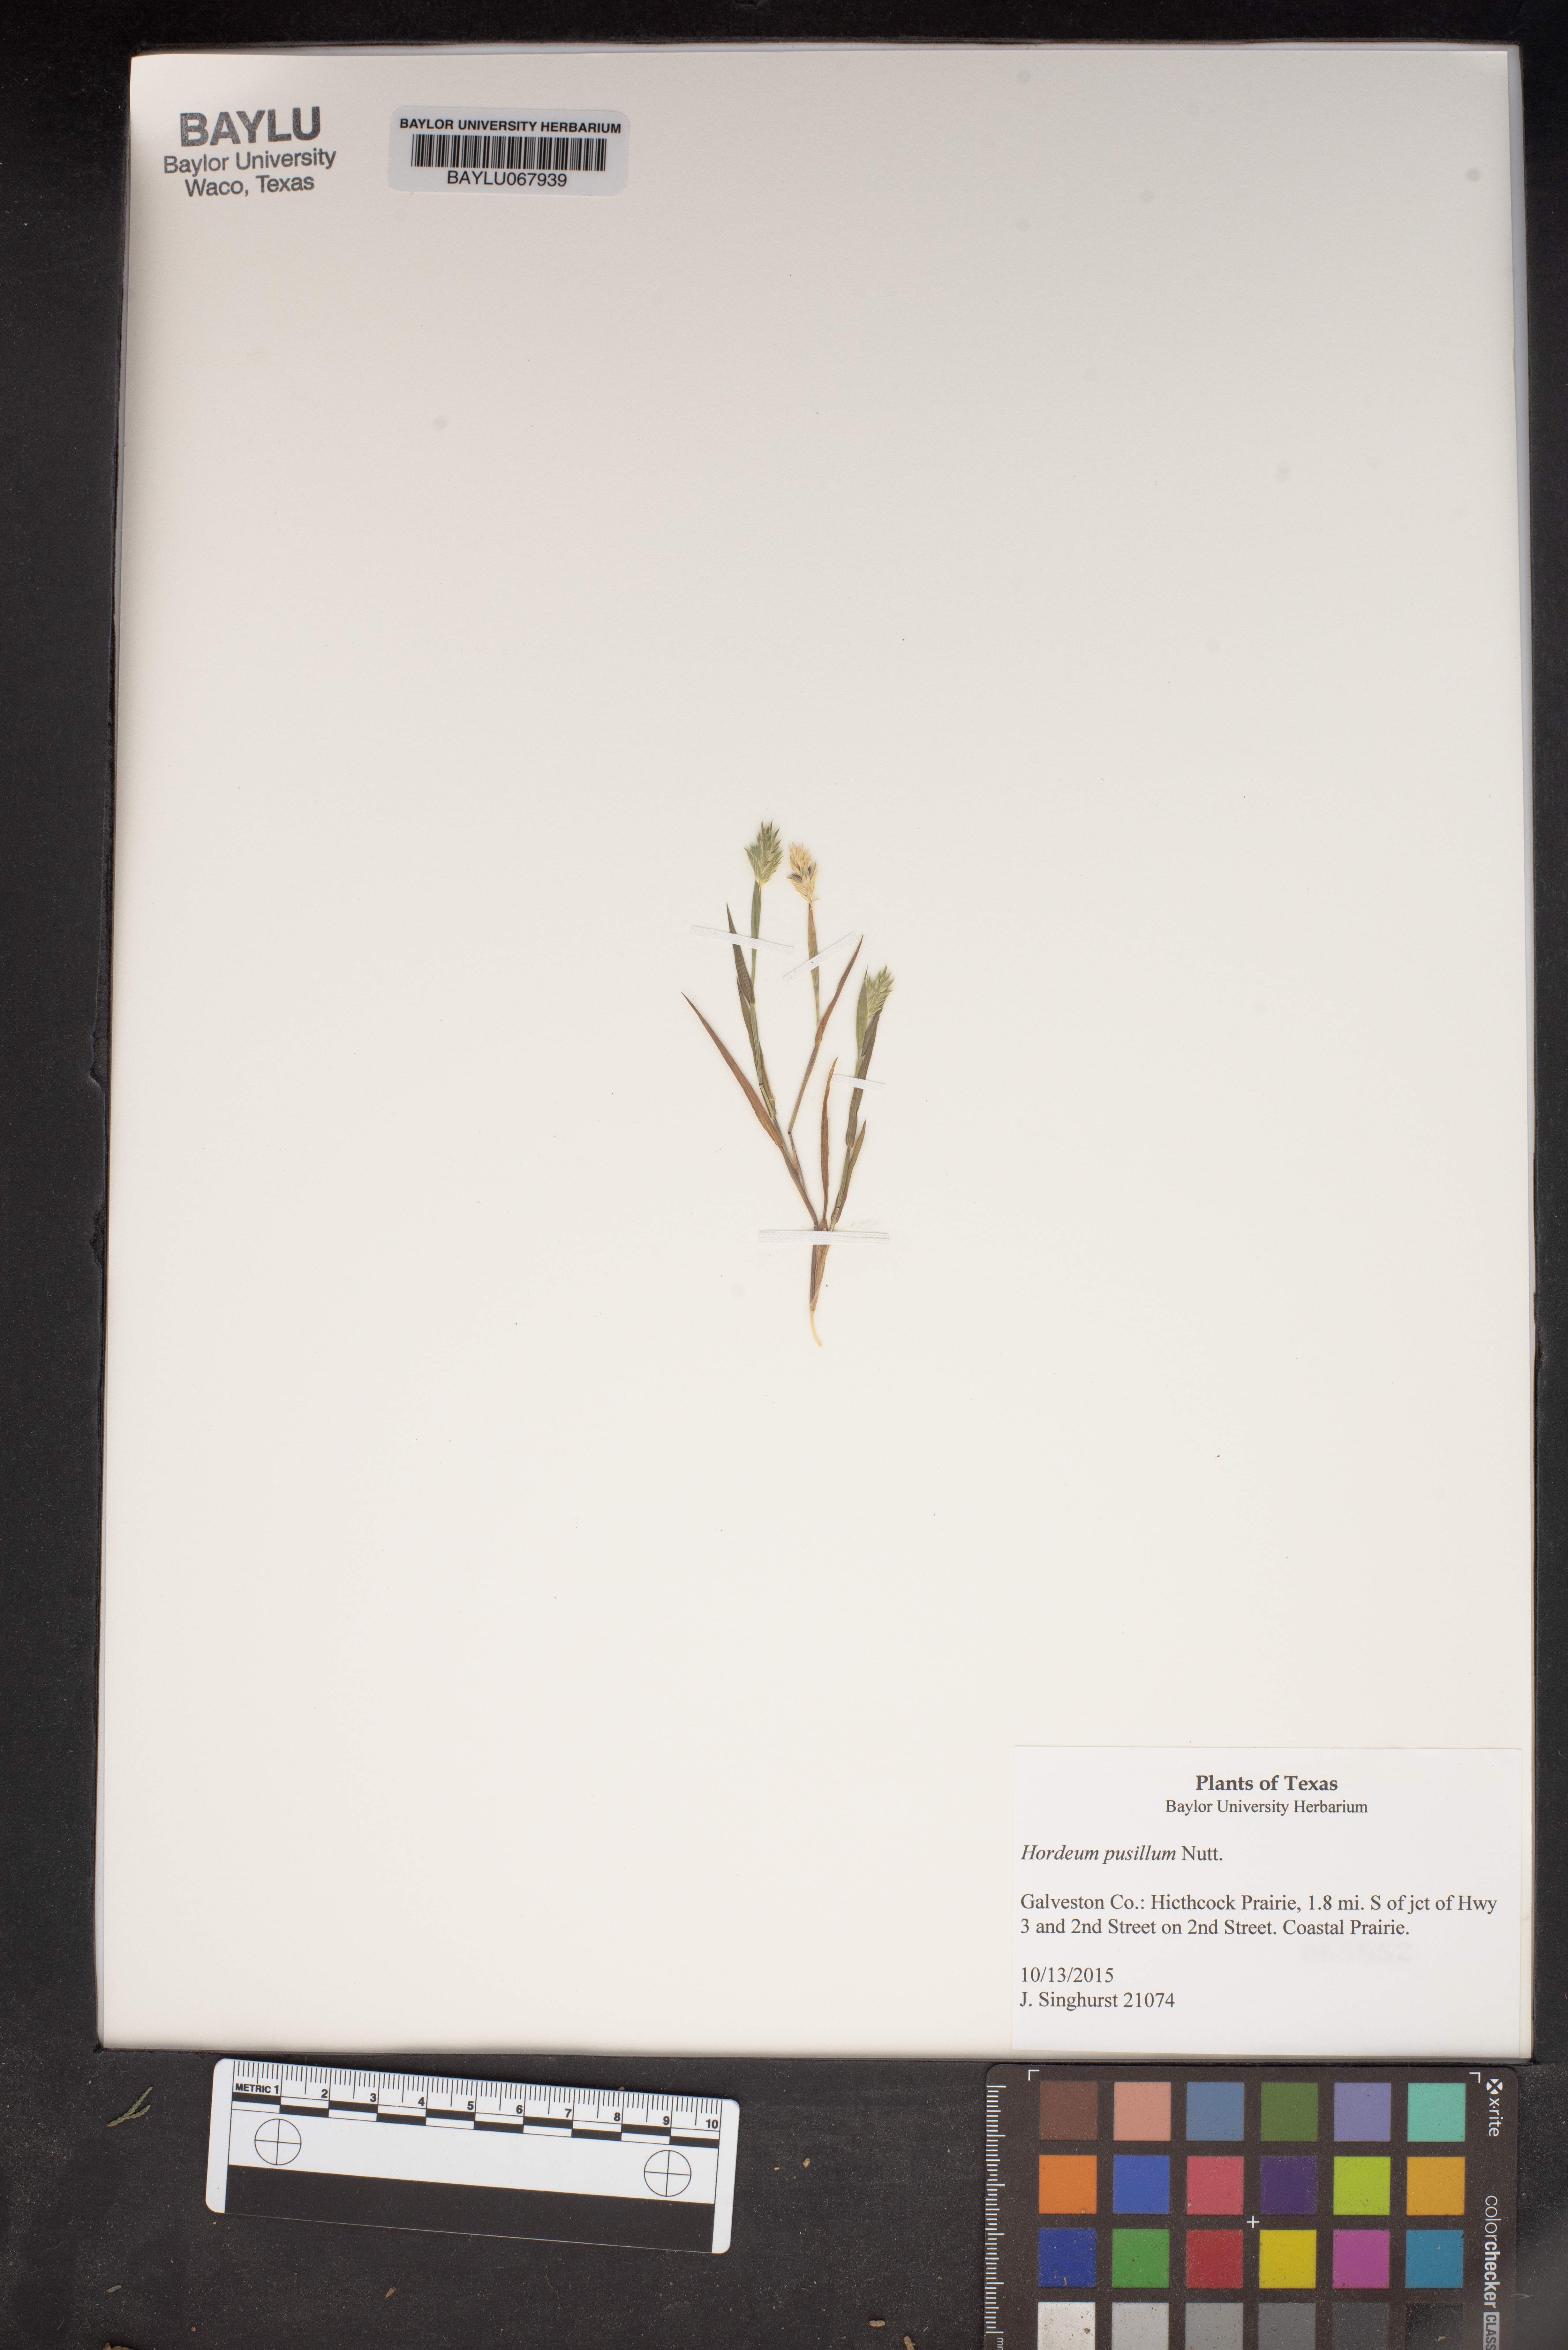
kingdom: Plantae
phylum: Tracheophyta
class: Liliopsida
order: Poales
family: Poaceae
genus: Hordeum
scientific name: Hordeum pusillum
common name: Little barley
